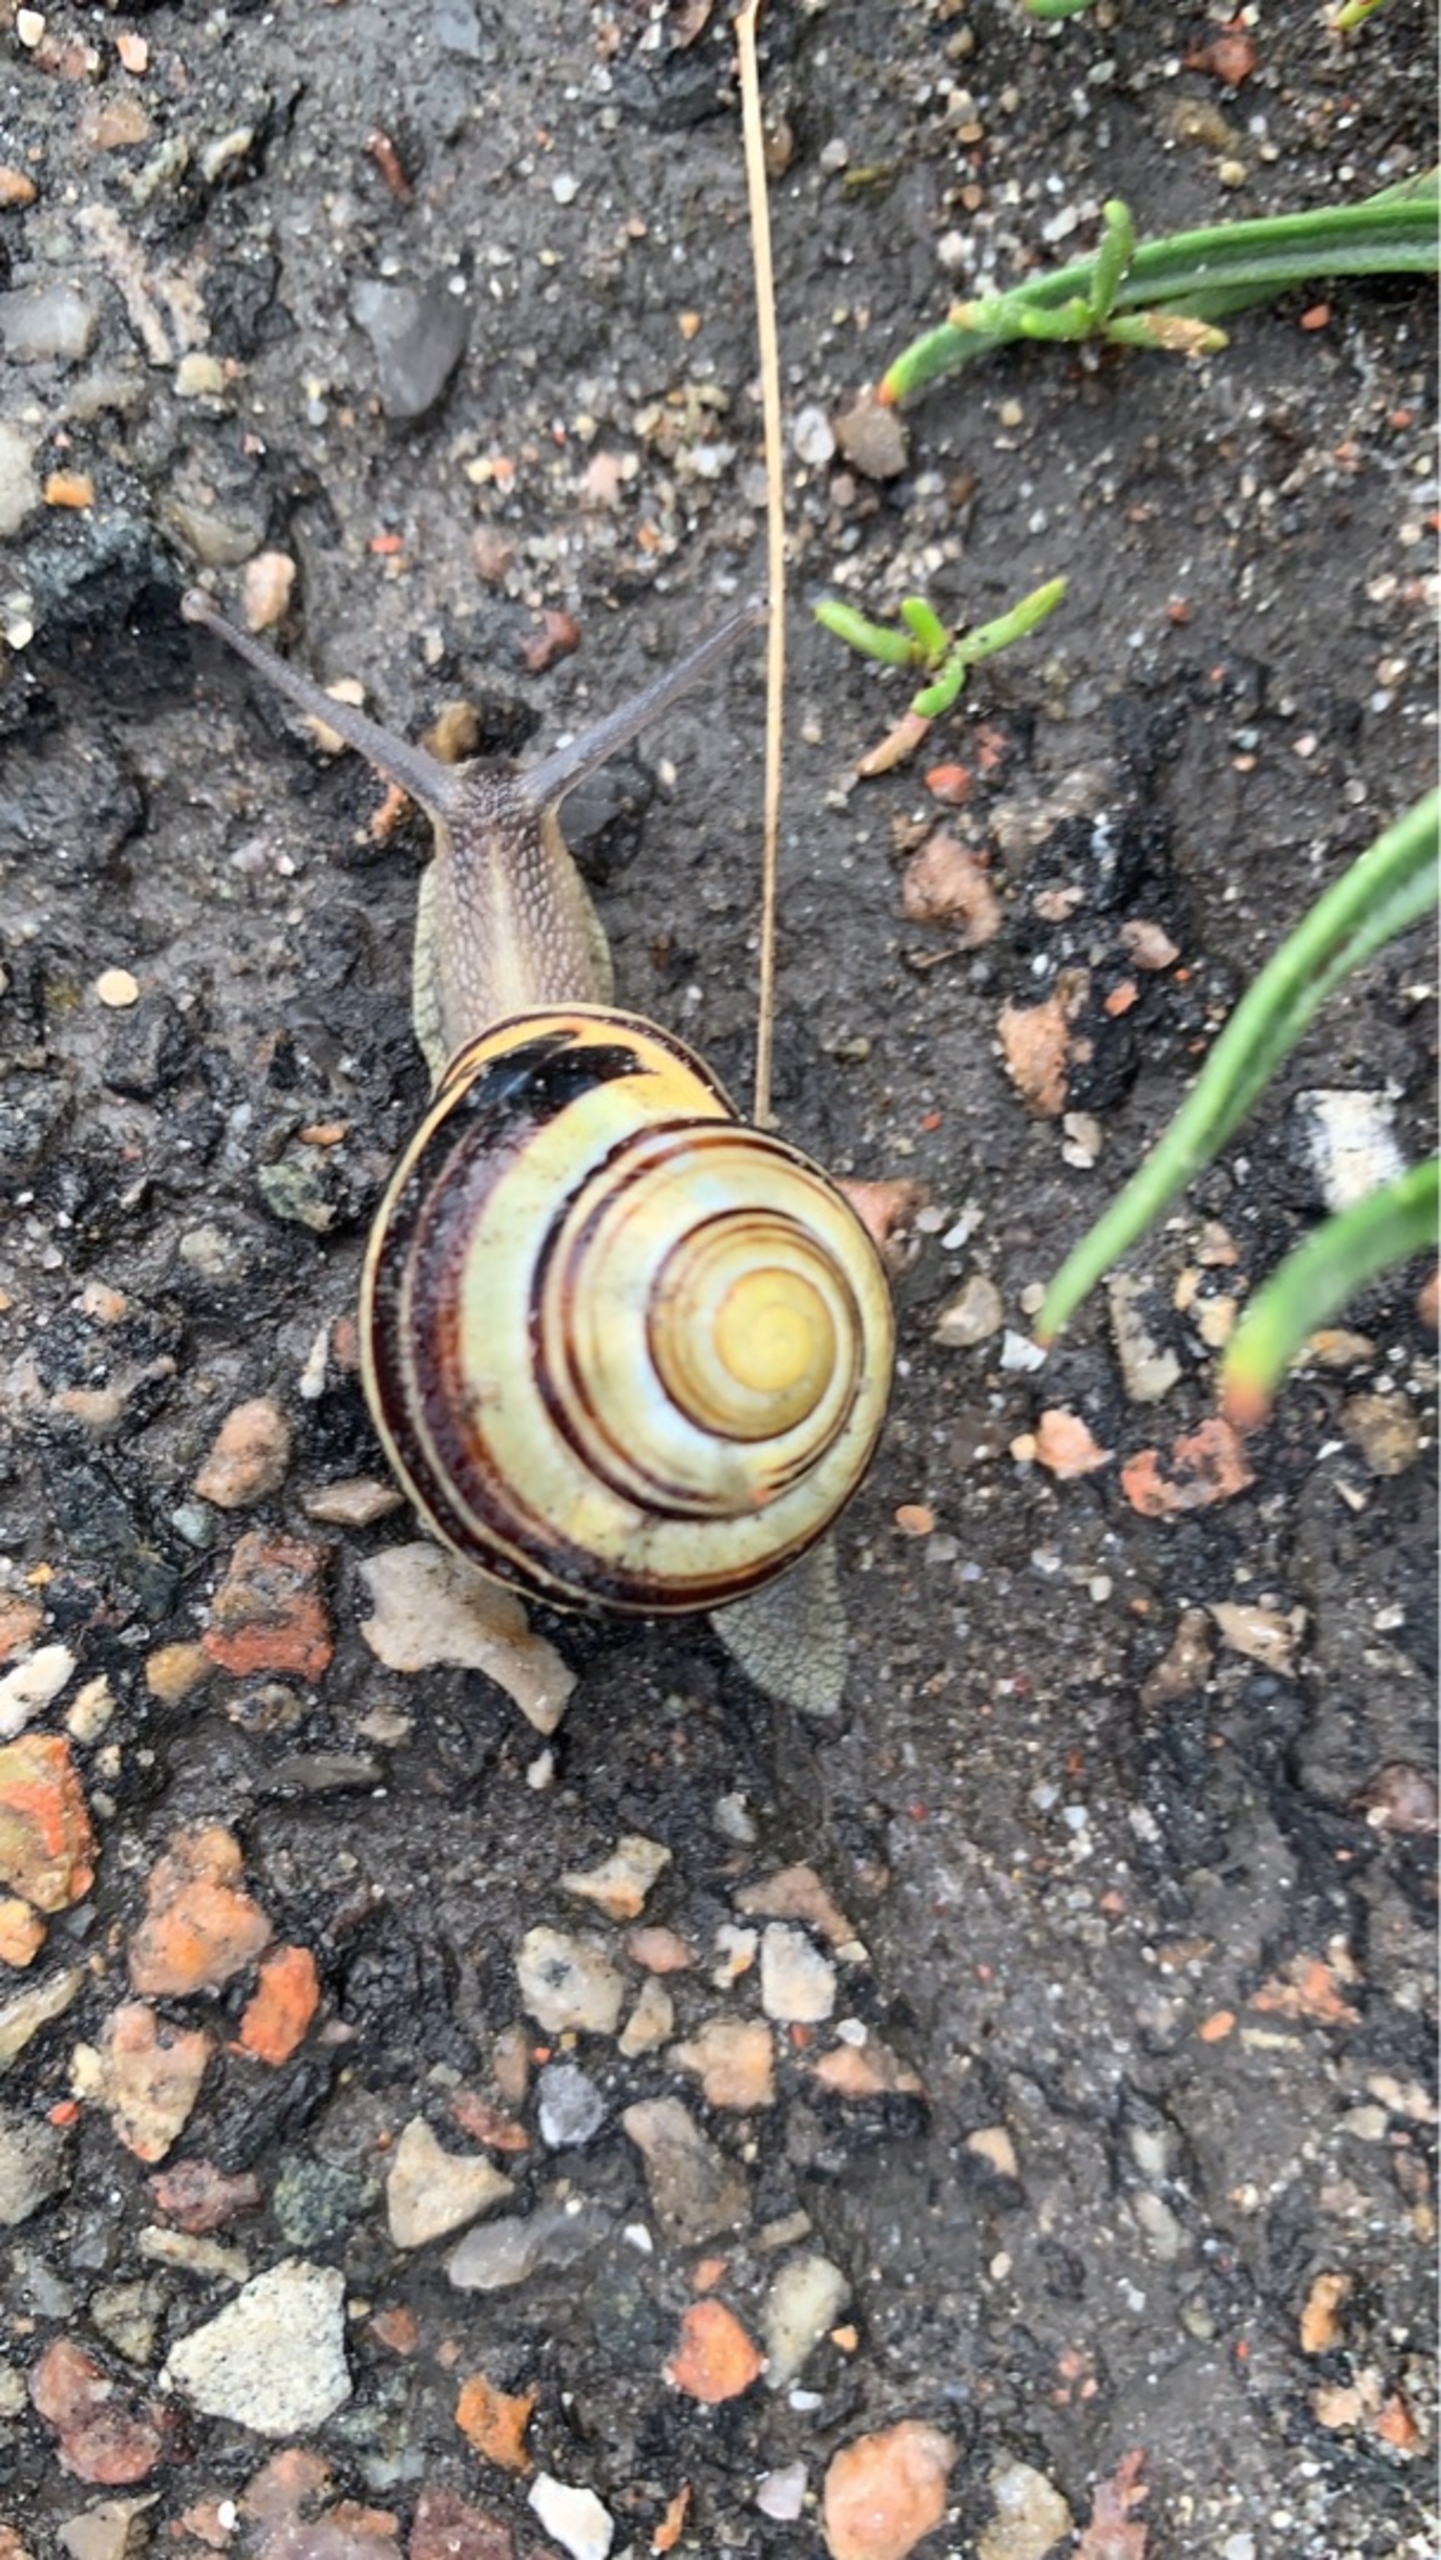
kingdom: Animalia
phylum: Mollusca
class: Gastropoda
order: Stylommatophora
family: Helicidae
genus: Cepaea
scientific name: Cepaea nemoralis
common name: Lundsnegl
